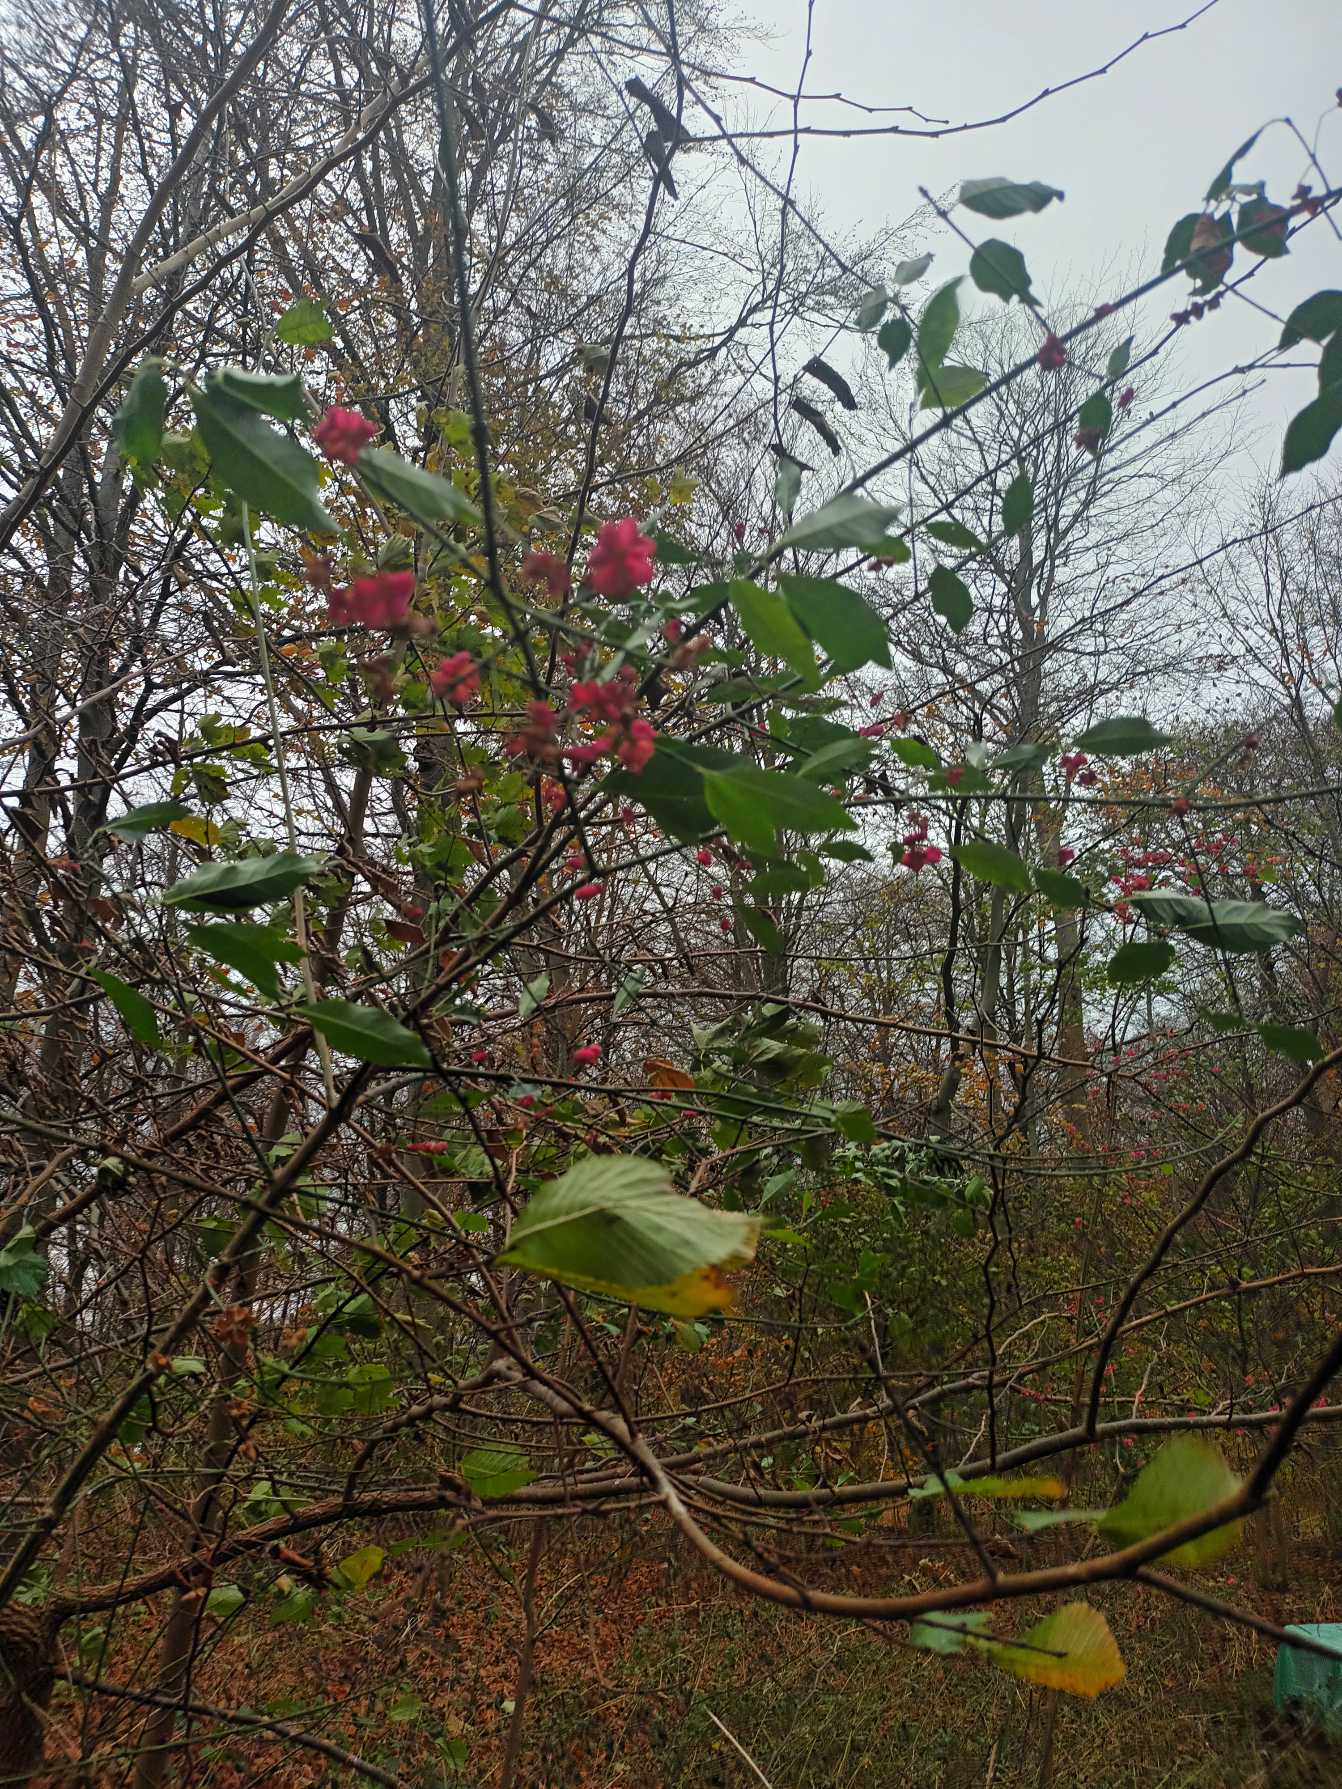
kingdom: Plantae
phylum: Tracheophyta
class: Magnoliopsida
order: Celastrales
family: Celastraceae
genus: Euonymus
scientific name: Euonymus europaeus
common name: Benved
